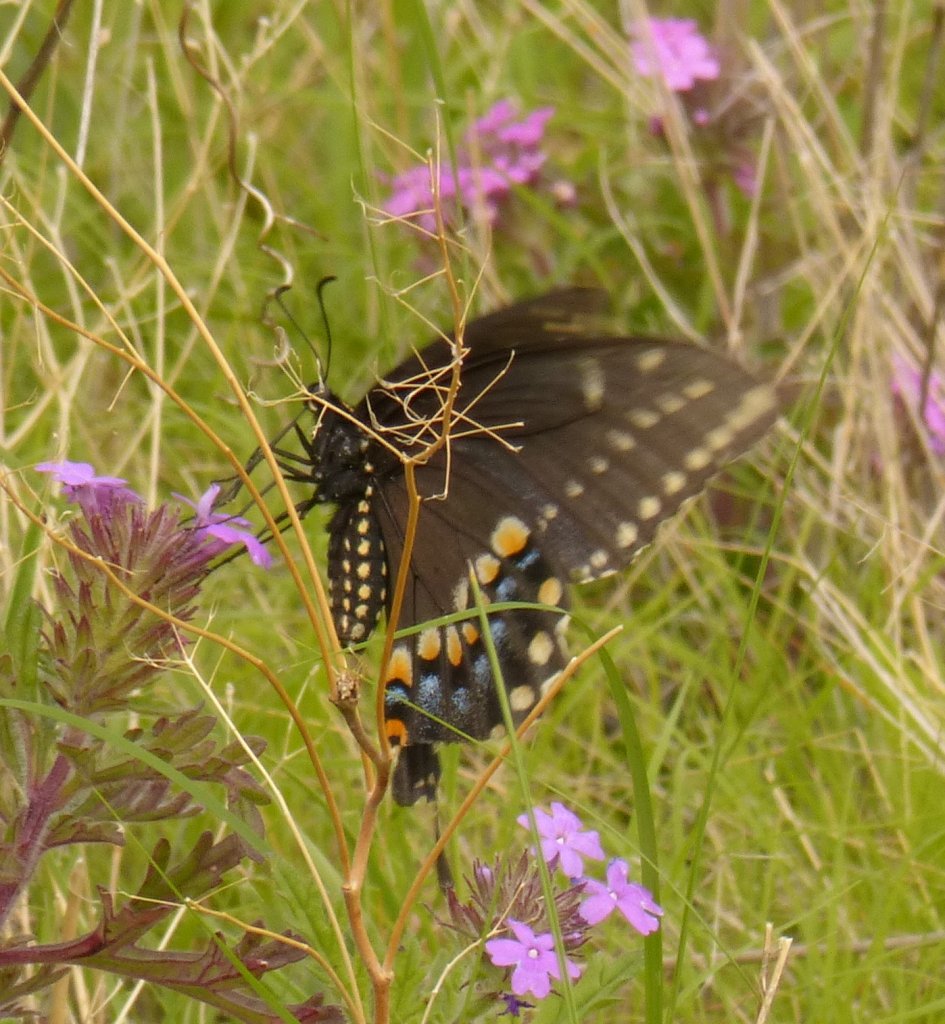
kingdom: Animalia
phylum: Arthropoda
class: Insecta
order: Lepidoptera
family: Papilionidae
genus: Papilio
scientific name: Papilio polyxenes
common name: Black Swallowtail
